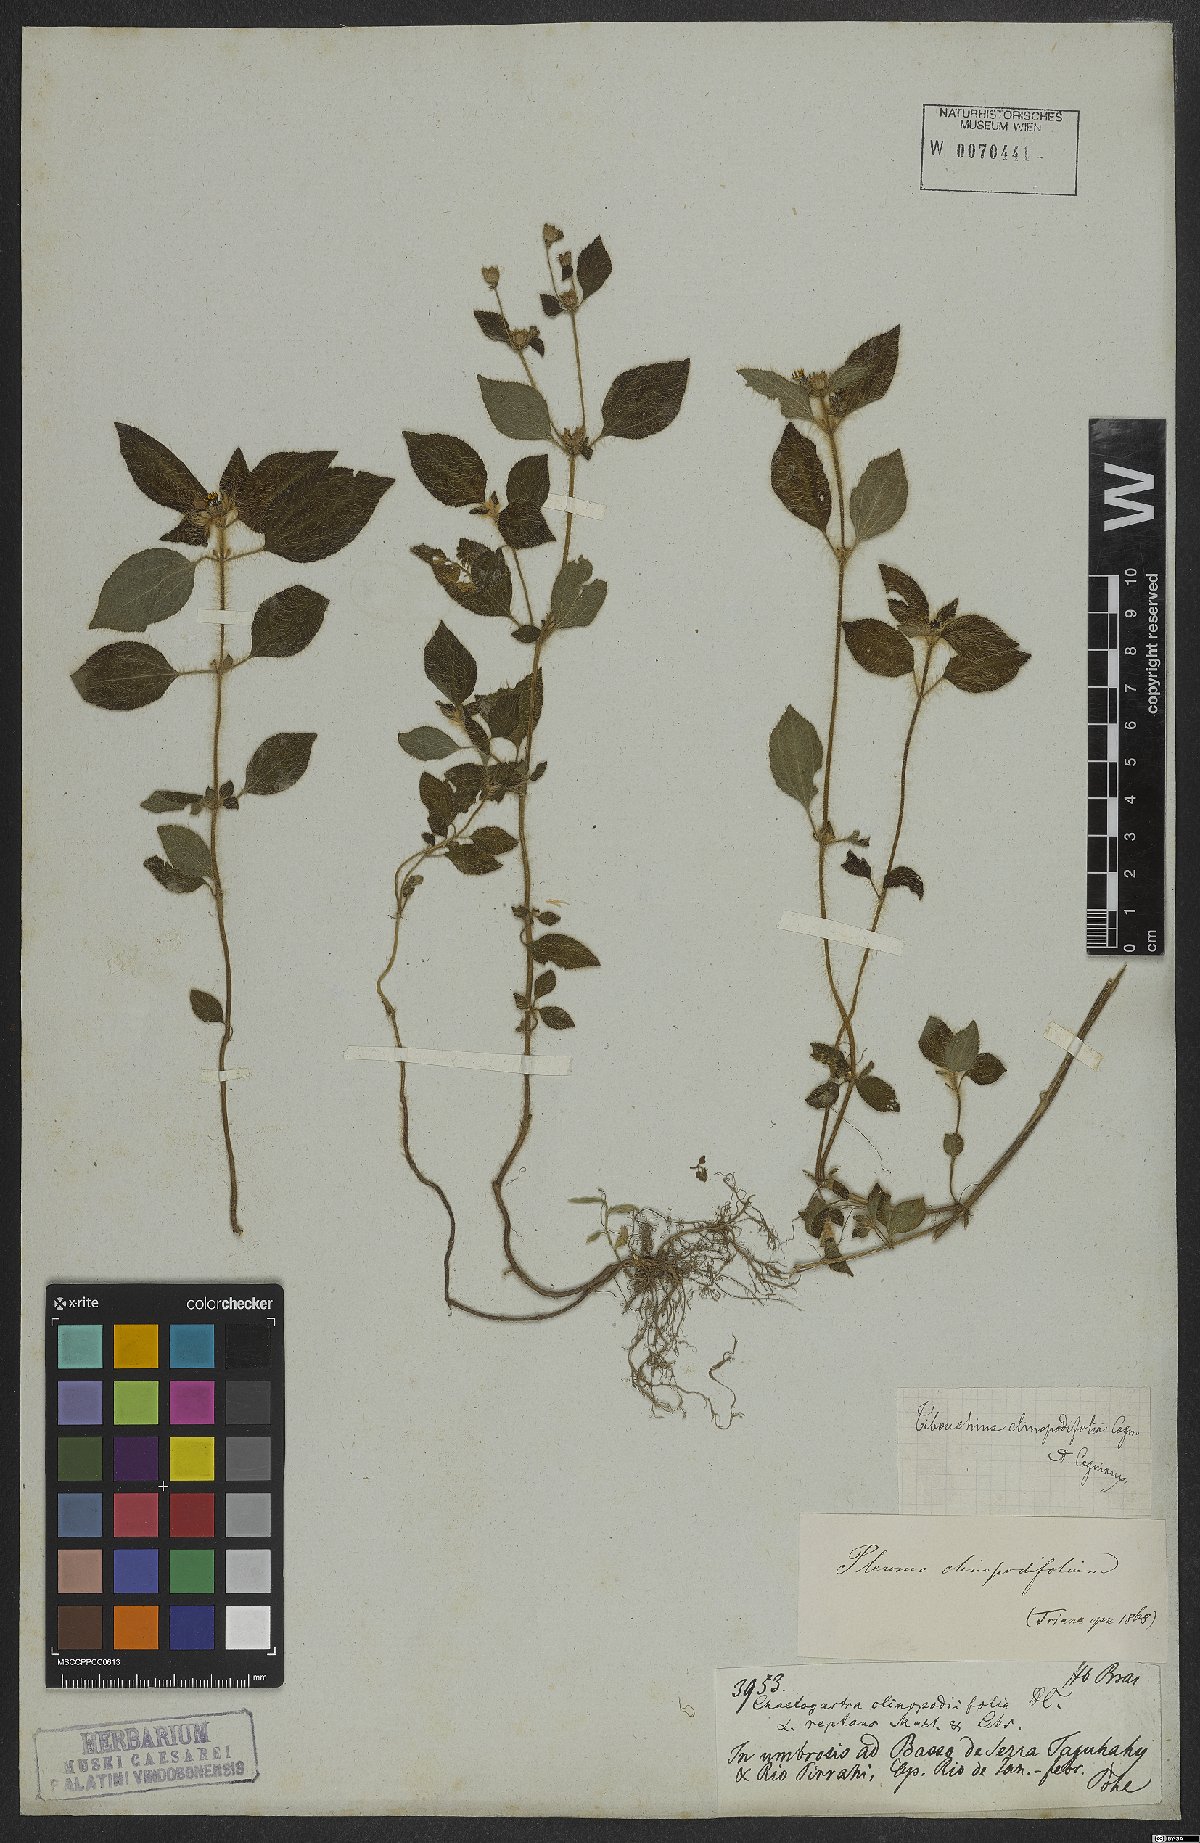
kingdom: Plantae
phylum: Tracheophyta
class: Magnoliopsida
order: Myrtales
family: Melastomataceae
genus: Chaetogastra
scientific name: Chaetogastra clinopodifolia
